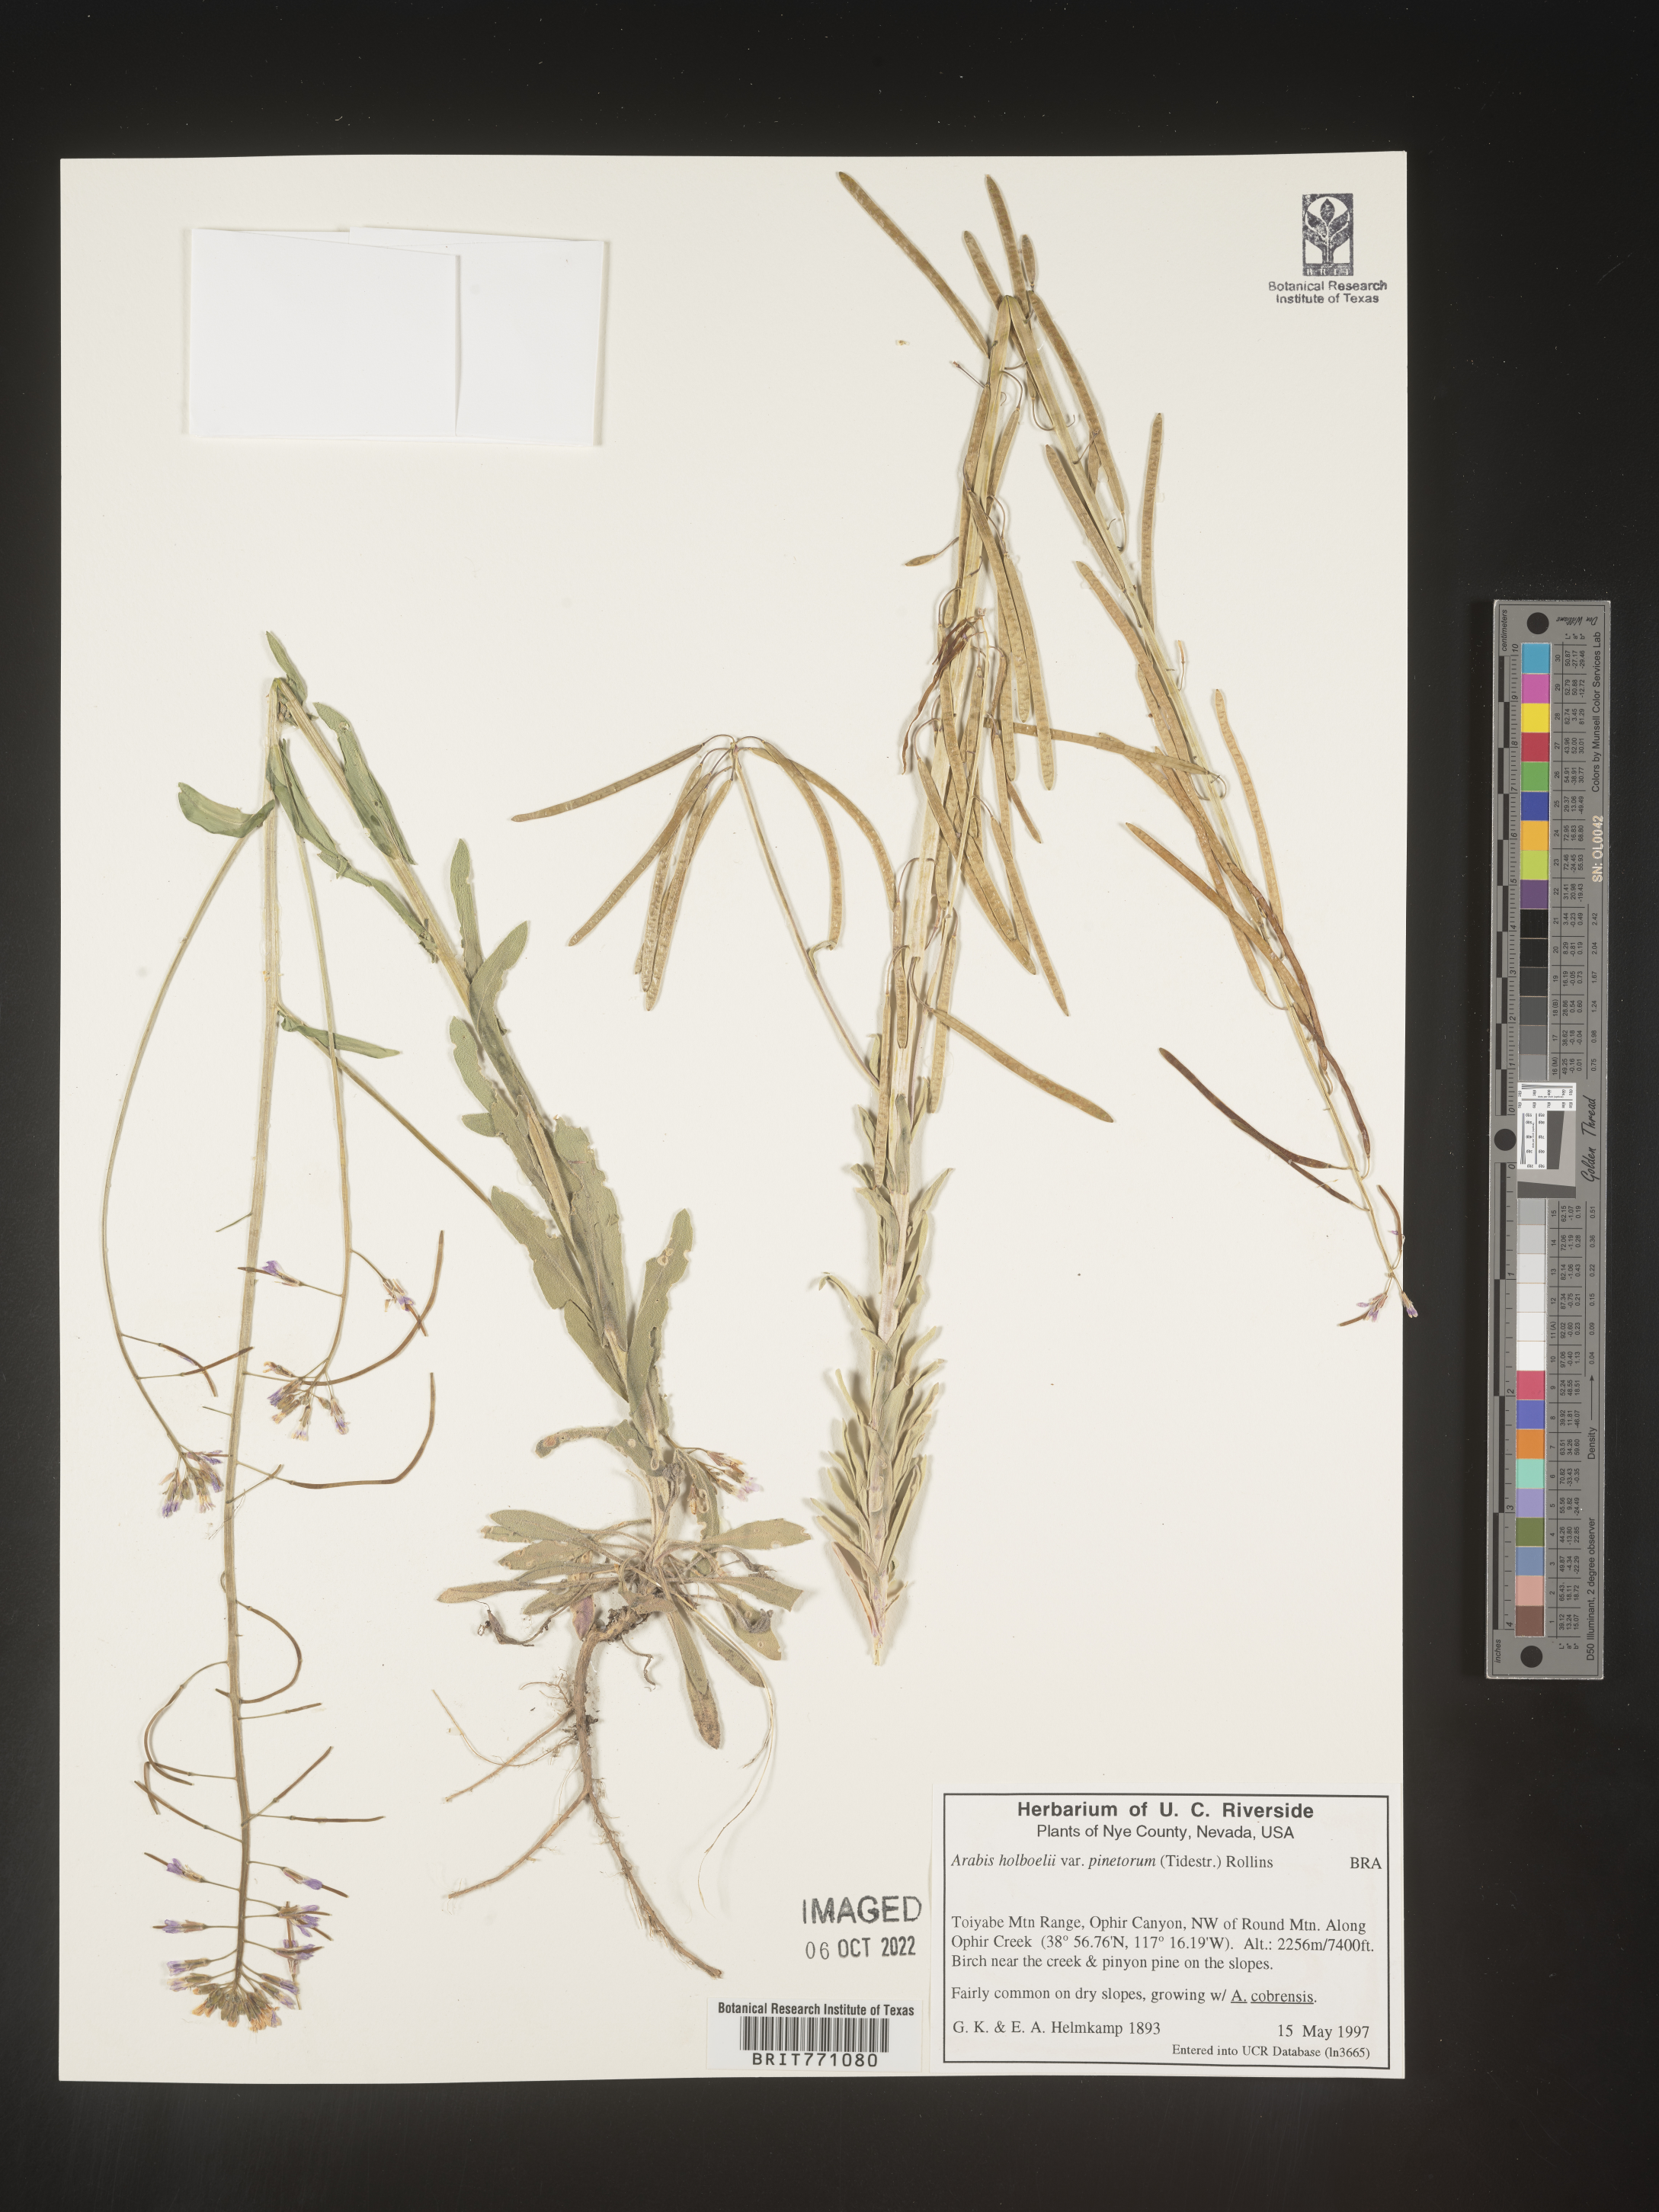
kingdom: Plantae
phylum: Tracheophyta
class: Magnoliopsida
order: Brassicales
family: Brassicaceae
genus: Boechera
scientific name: Boechera holboellii
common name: Holboell's rockcress
